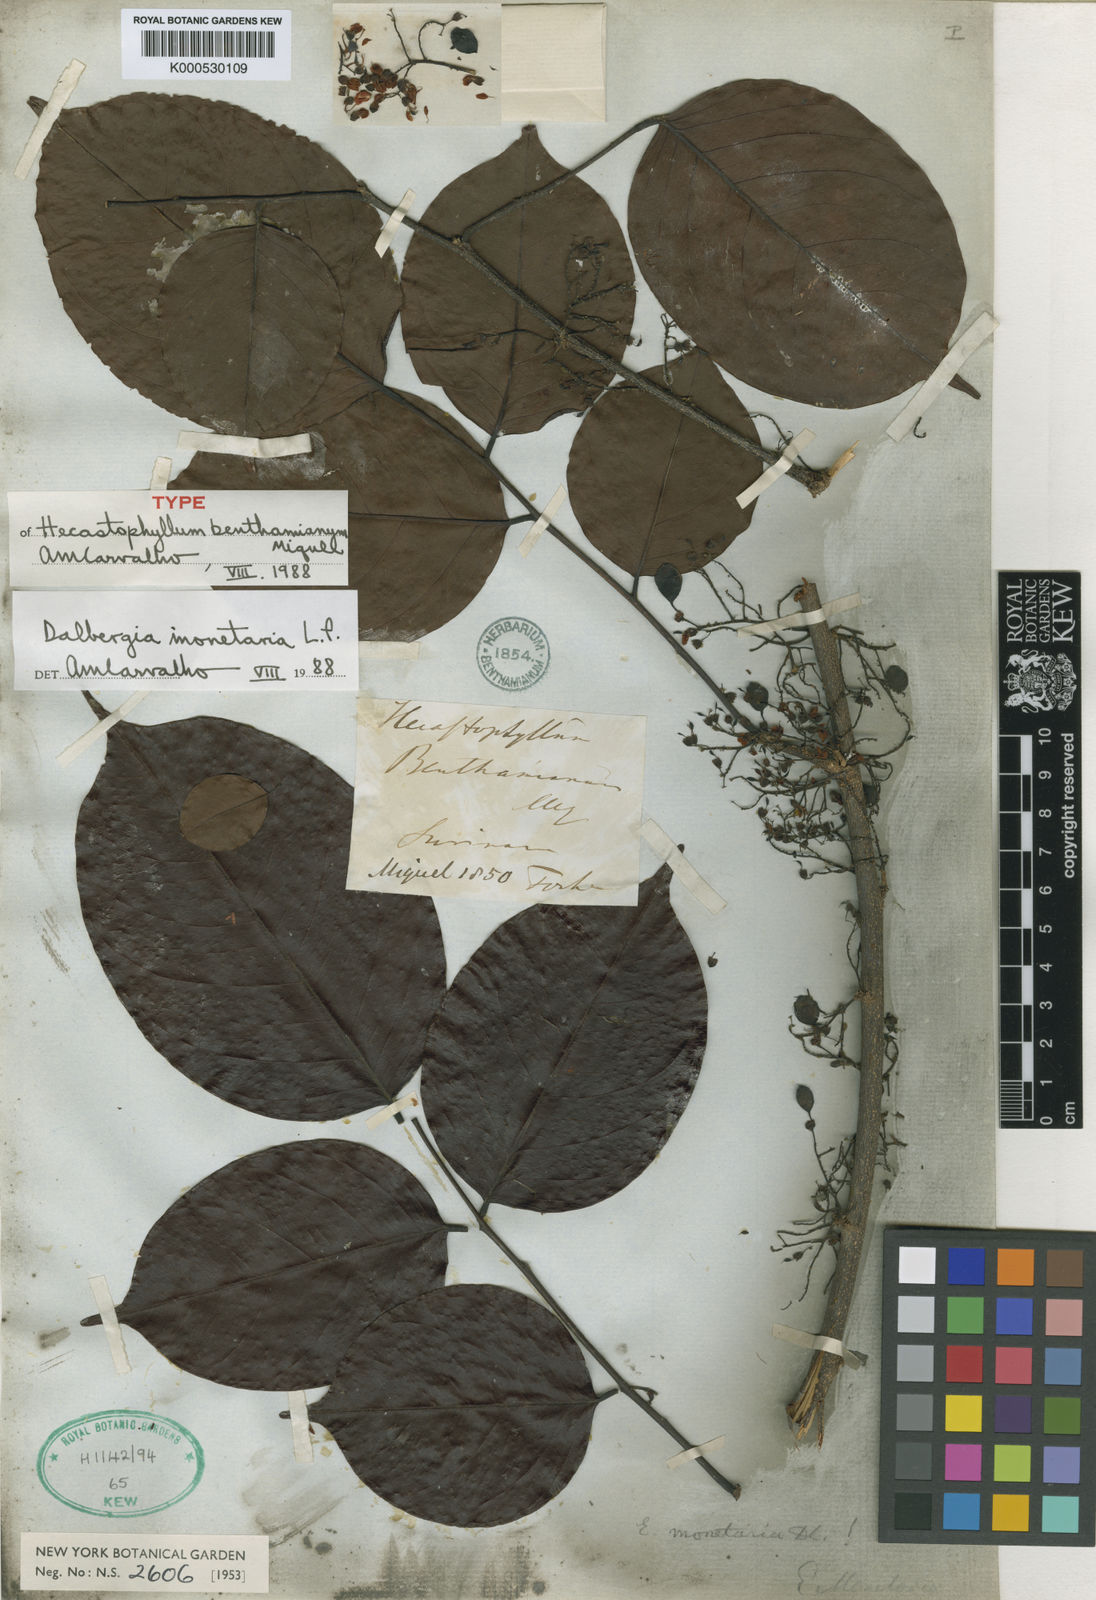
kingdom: Plantae
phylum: Tracheophyta
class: Magnoliopsida
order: Fabales
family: Fabaceae
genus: Dalbergia
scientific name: Dalbergia ovalis
